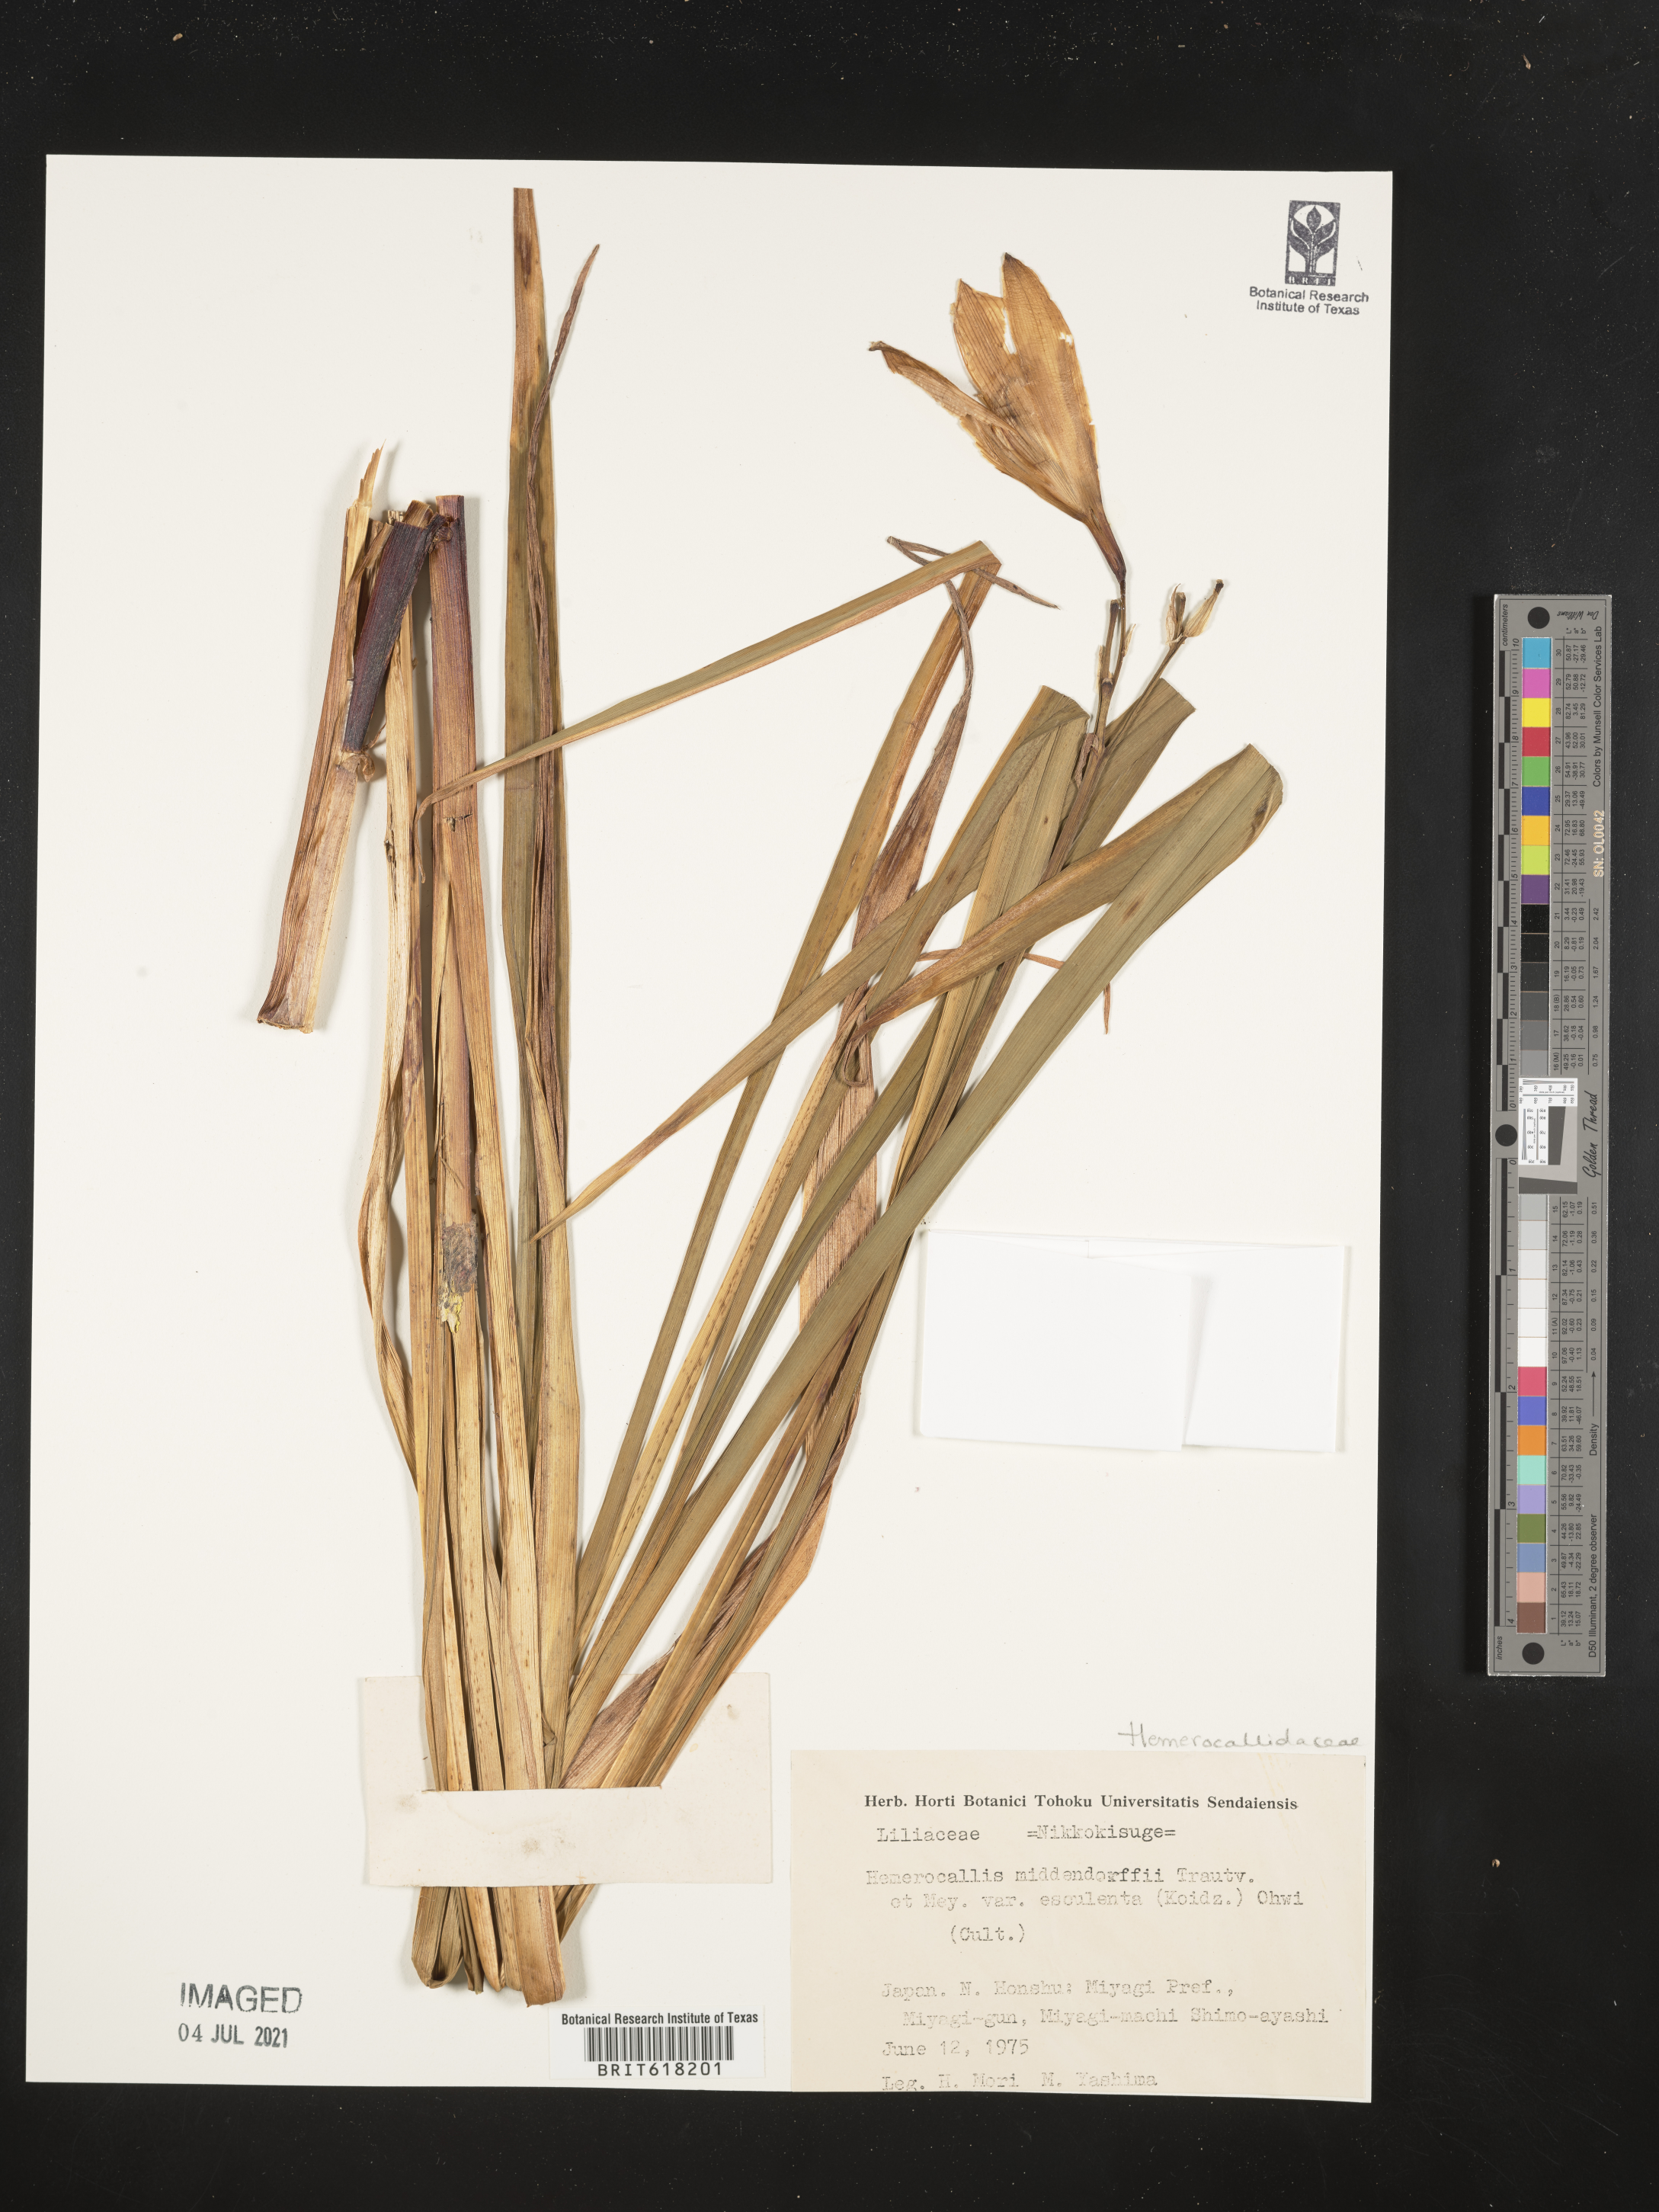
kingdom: Plantae
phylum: Tracheophyta
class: Liliopsida
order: Asparagales
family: Asphodelaceae
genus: Hemerocallis
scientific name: Hemerocallis middendorffii
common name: Amur day-lily
